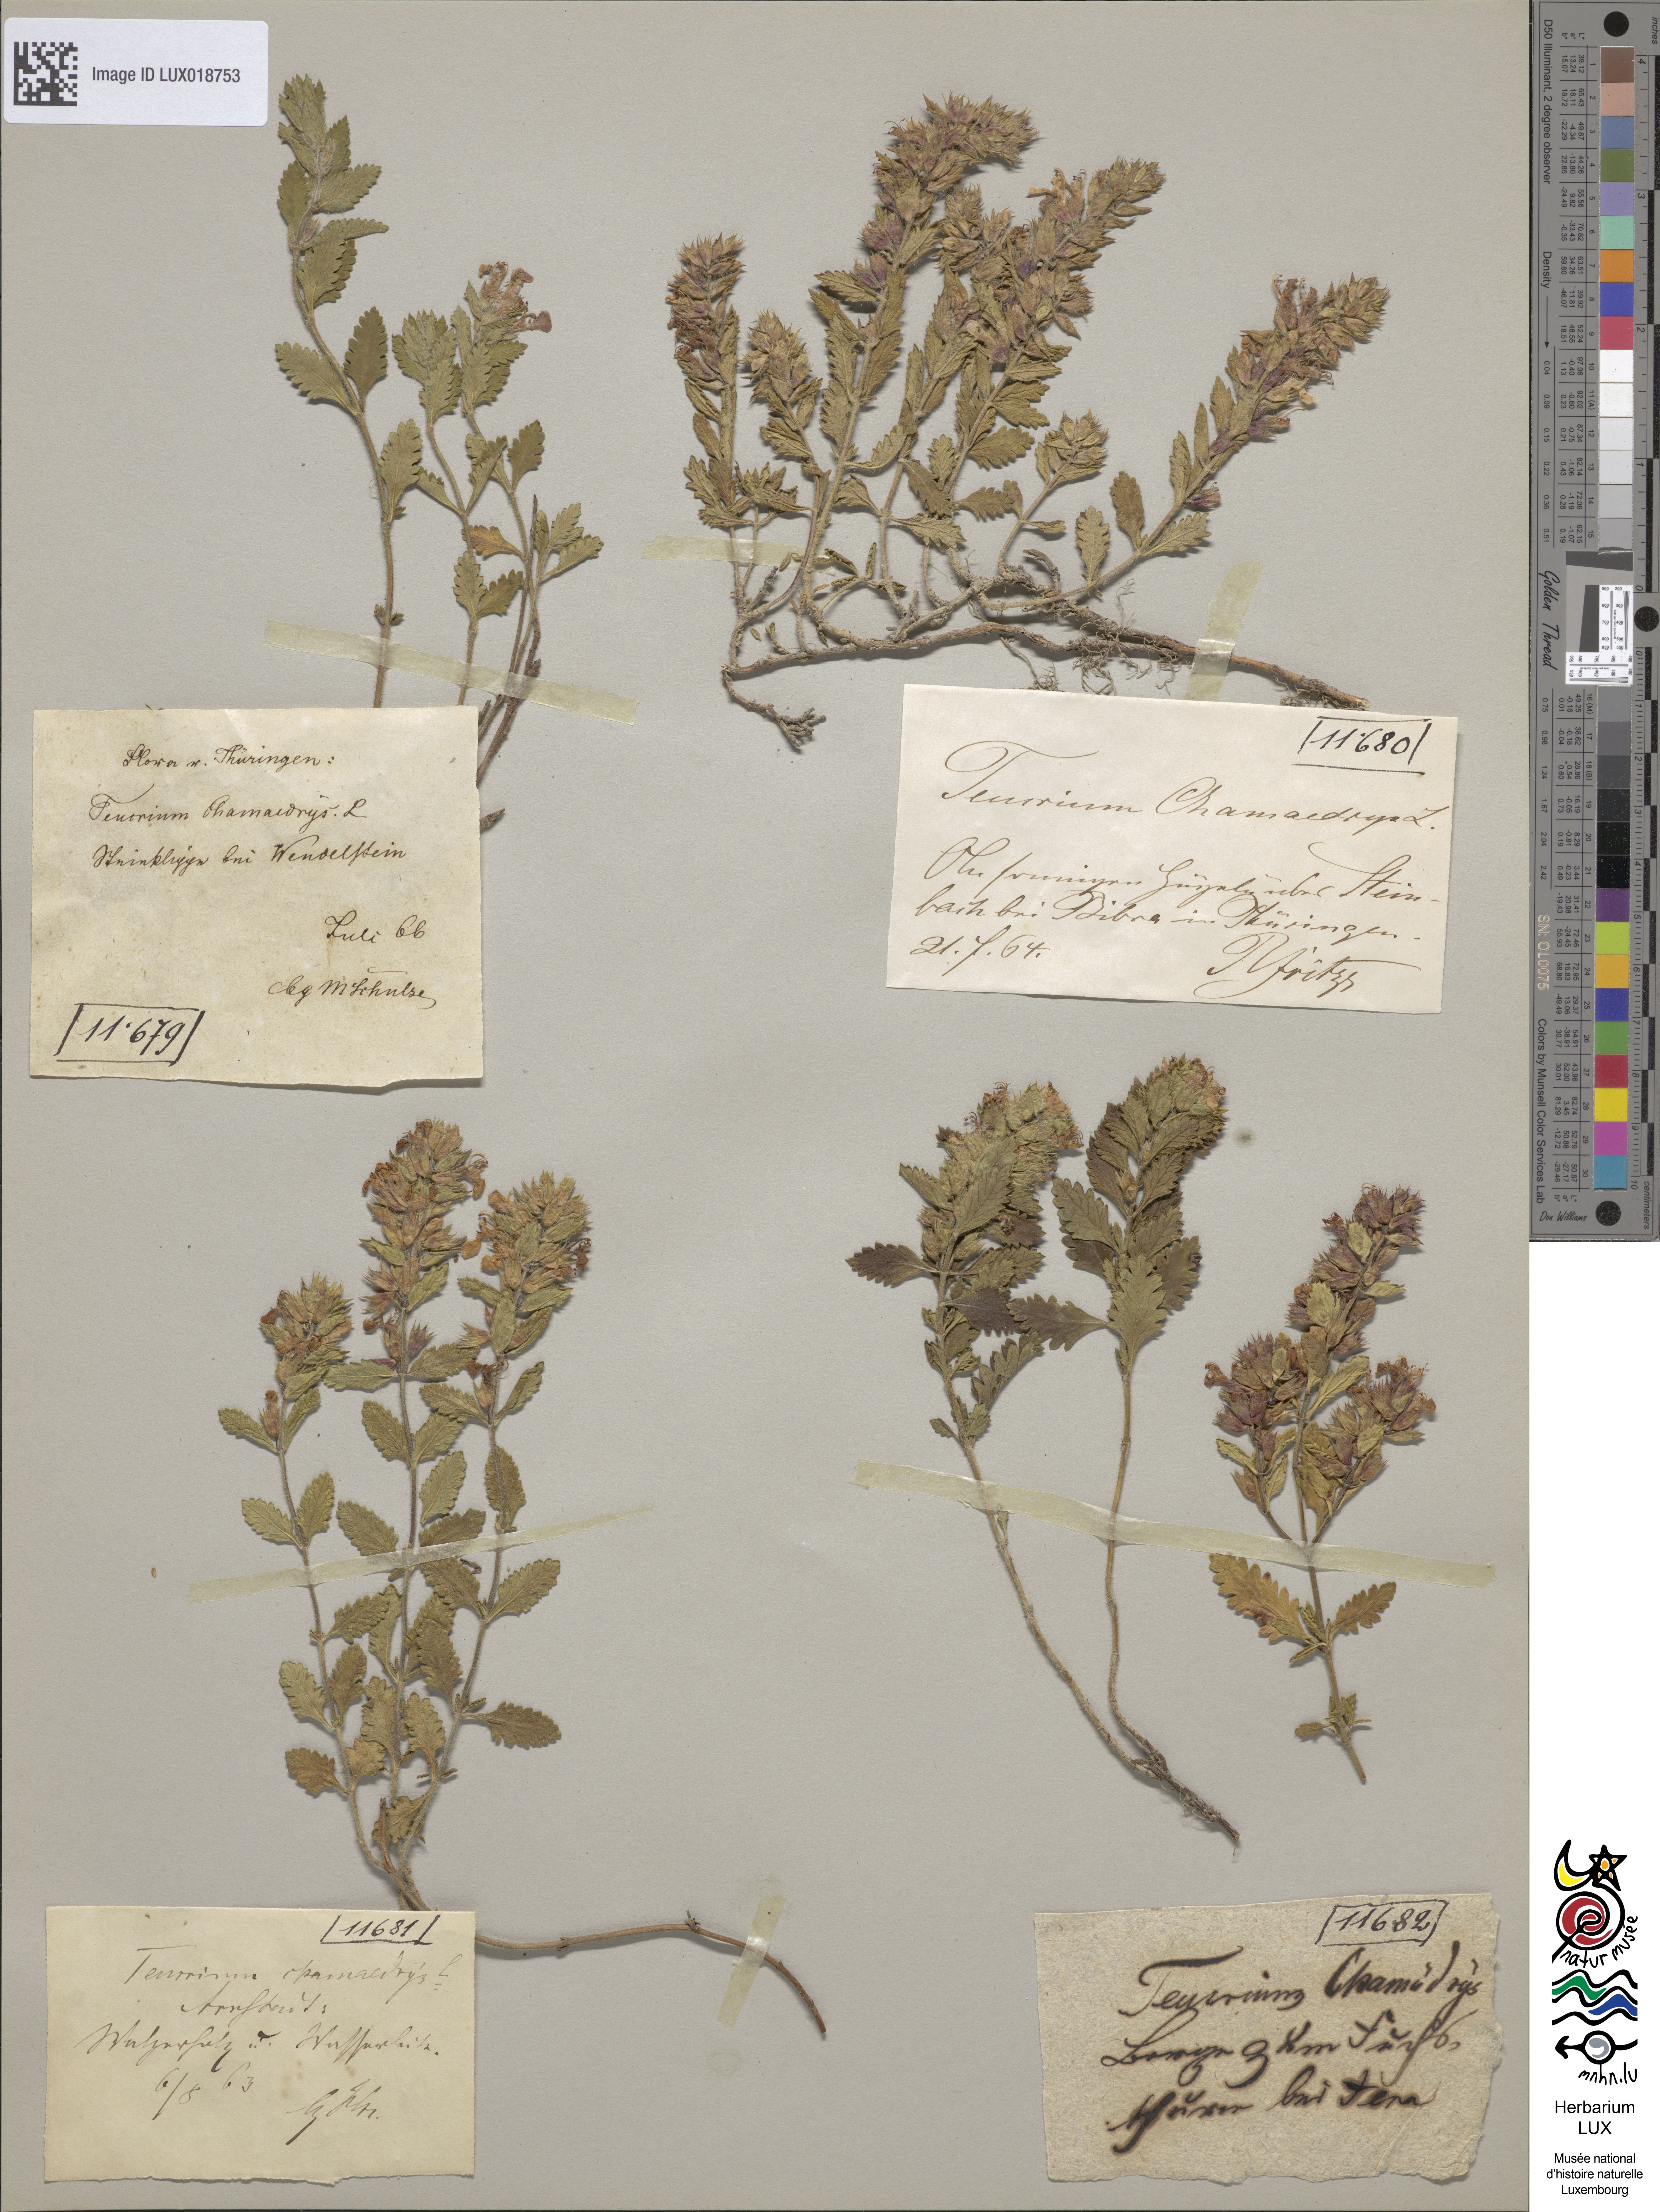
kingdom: Plantae
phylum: Tracheophyta
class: Magnoliopsida
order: Lamiales
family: Lamiaceae
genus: Teucrium
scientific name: Teucrium chamaedrys
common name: Wall germander
